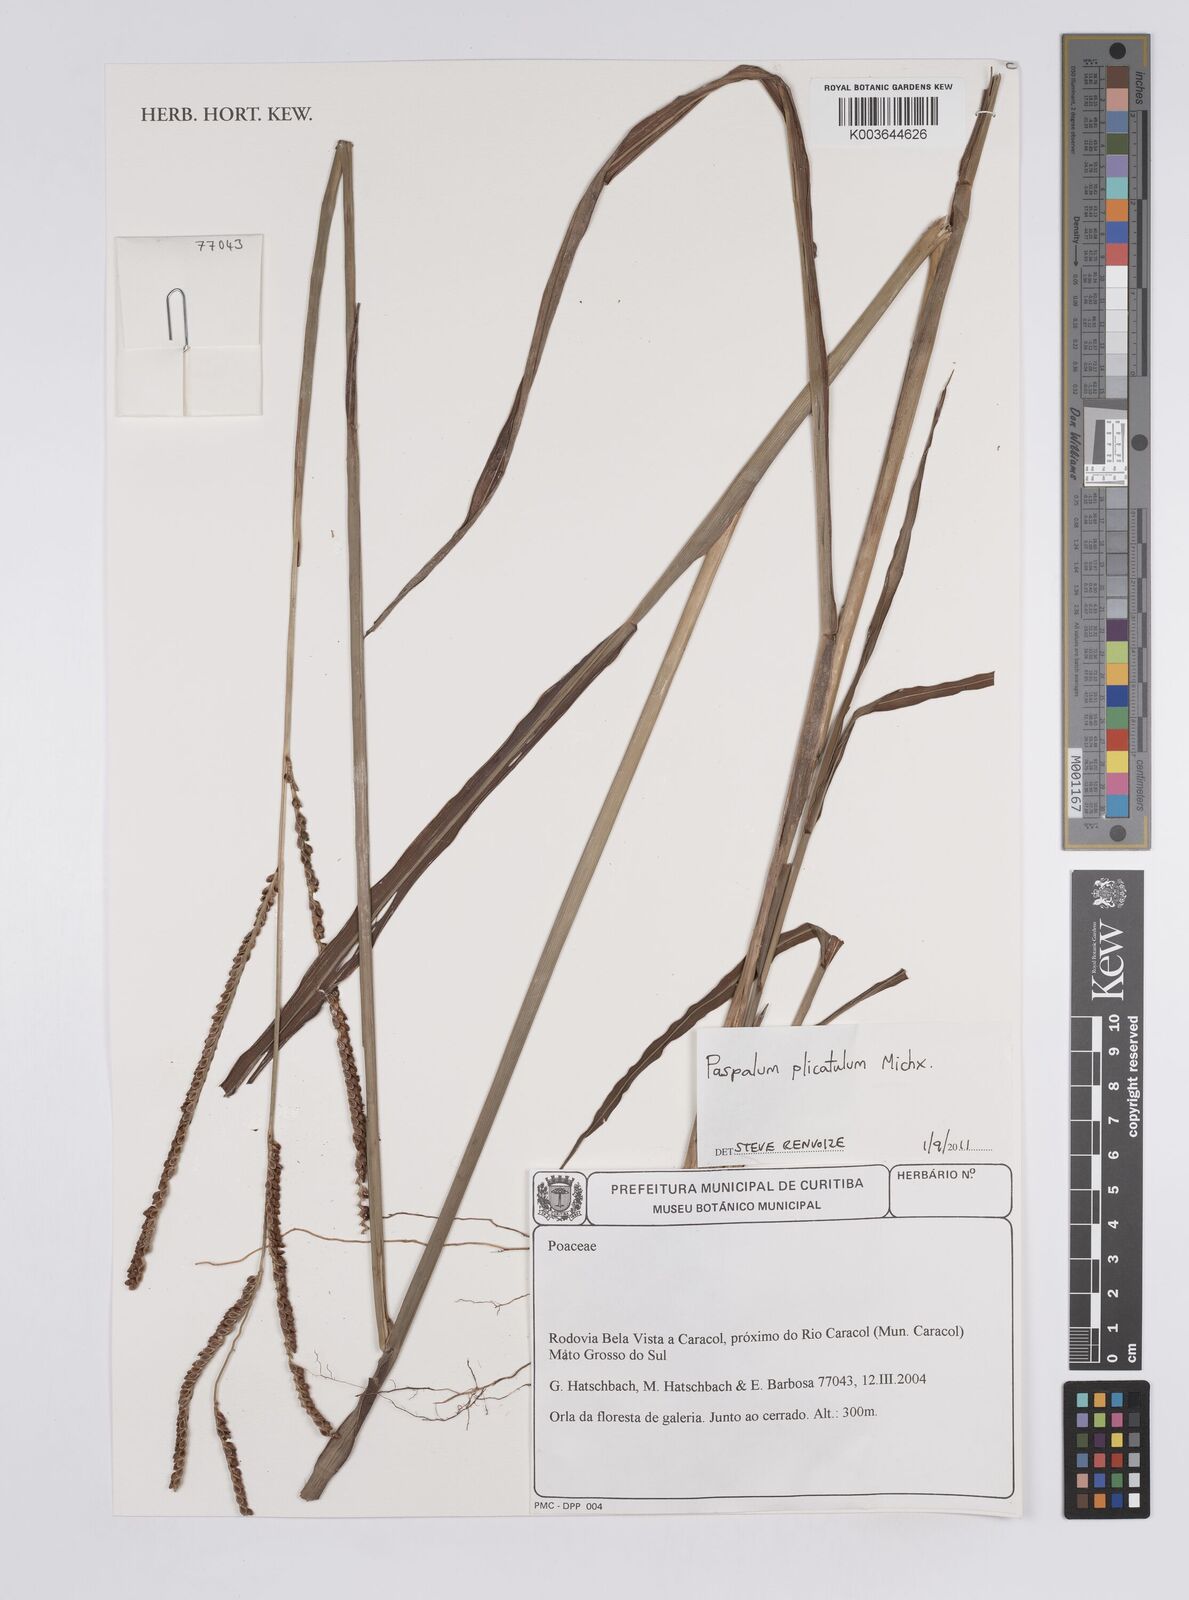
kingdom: Plantae
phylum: Tracheophyta
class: Liliopsida
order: Poales
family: Poaceae
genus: Paspalum
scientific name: Paspalum plicatulum
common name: Top paspalum
